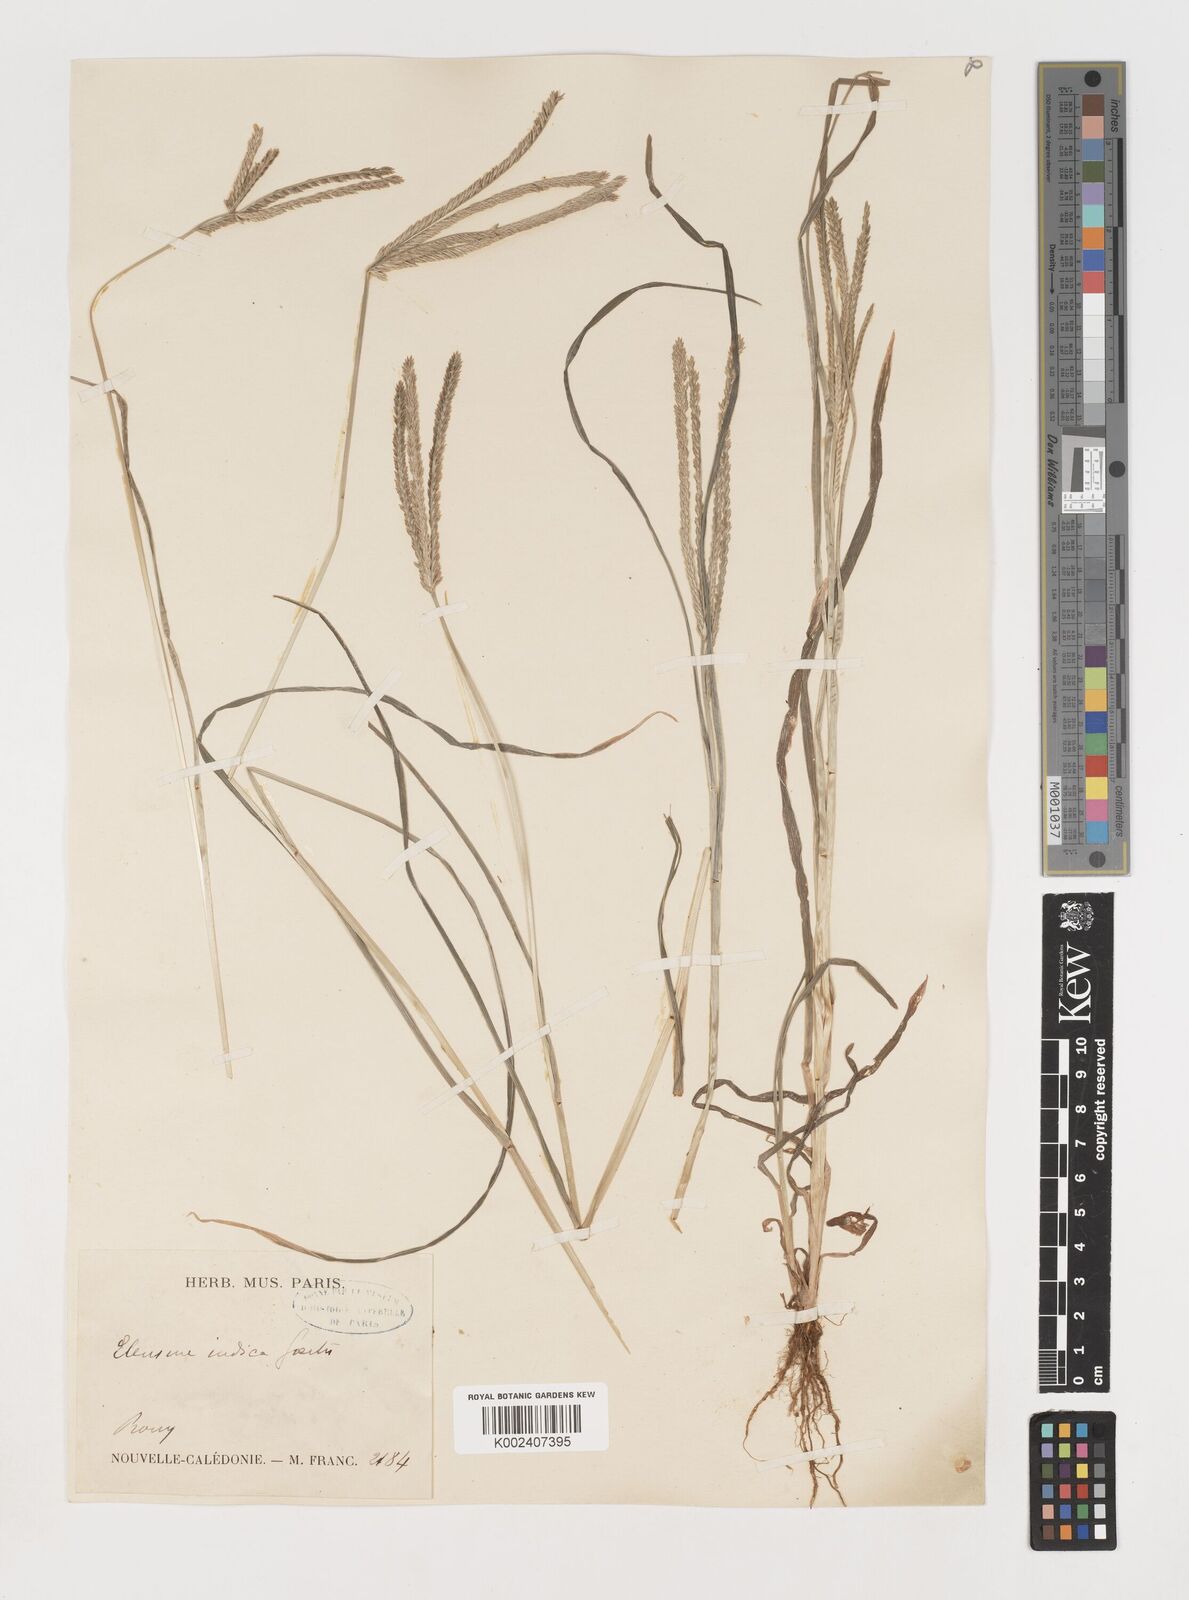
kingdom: Plantae
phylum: Tracheophyta
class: Liliopsida
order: Poales
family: Poaceae
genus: Eleusine
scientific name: Eleusine indica
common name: Yard-grass
